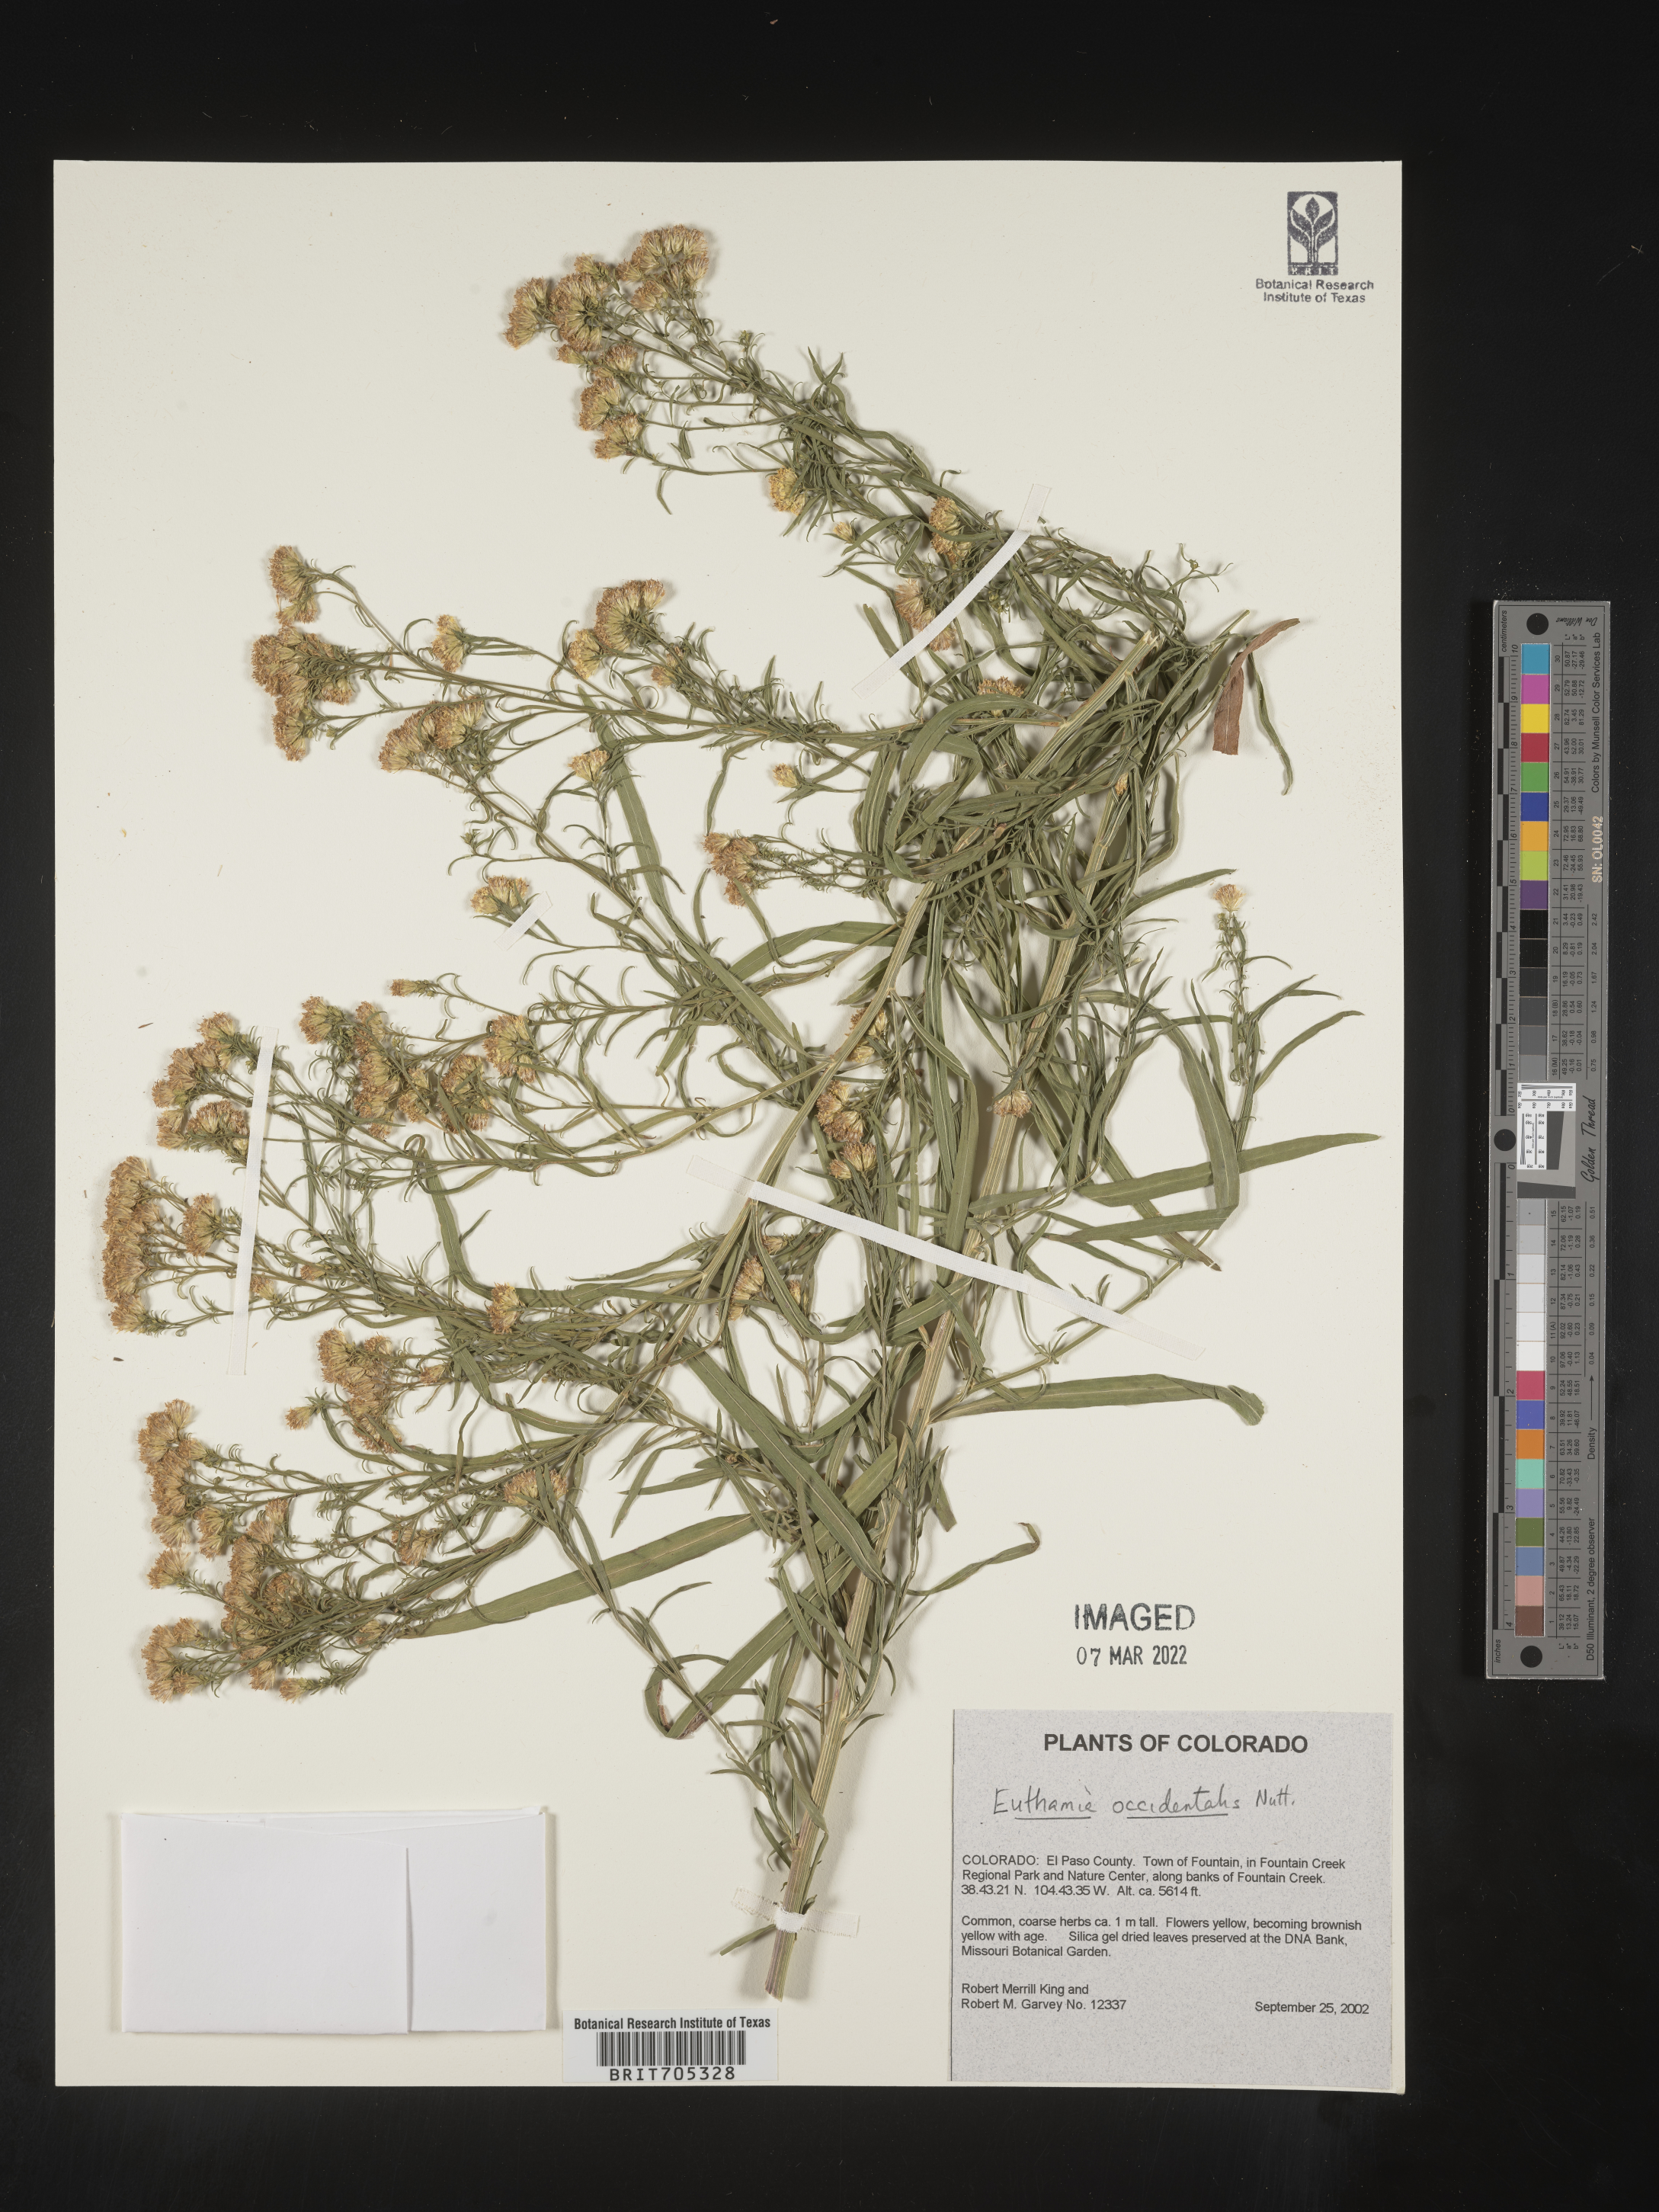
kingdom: Plantae
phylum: Tracheophyta
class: Magnoliopsida
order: Asterales
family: Asteraceae
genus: Euthamia
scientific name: Euthamia occidentalis
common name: Western goldentop
